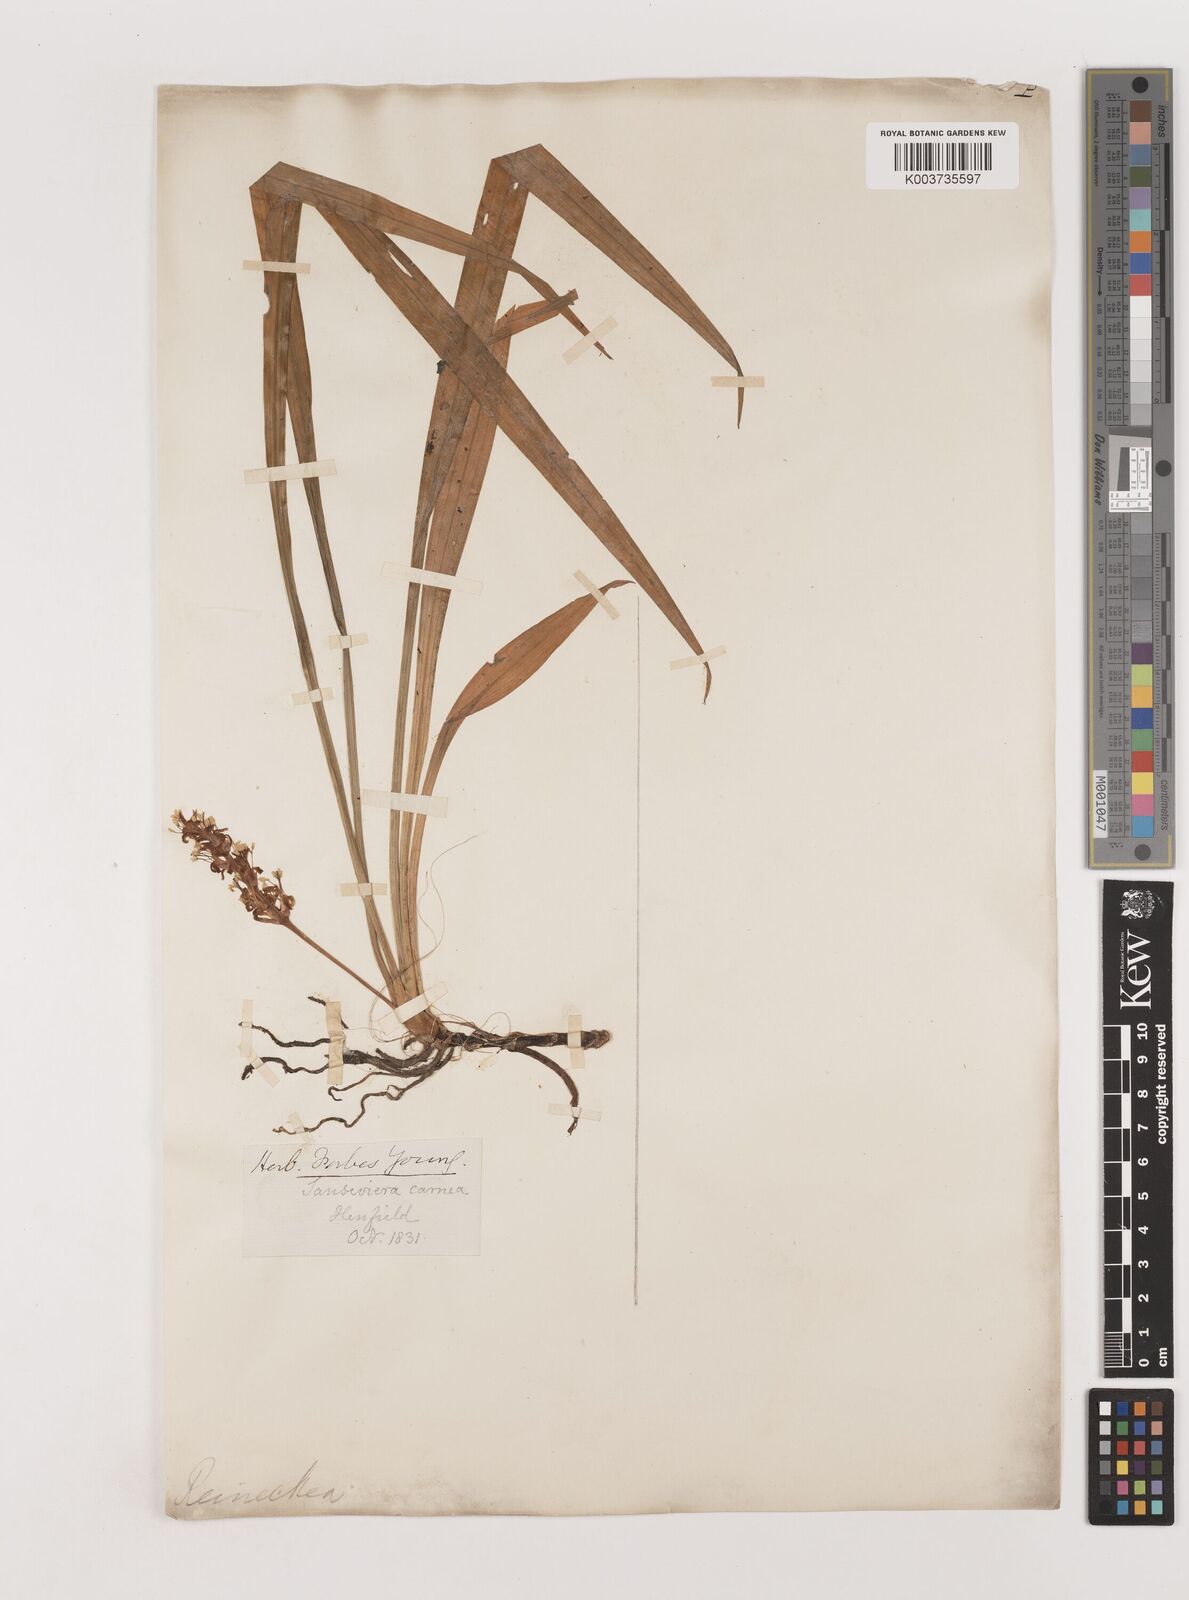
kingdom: Plantae
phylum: Tracheophyta
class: Liliopsida
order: Asparagales
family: Asparagaceae
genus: Reineckea
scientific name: Reineckea carnea
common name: Reineckea
